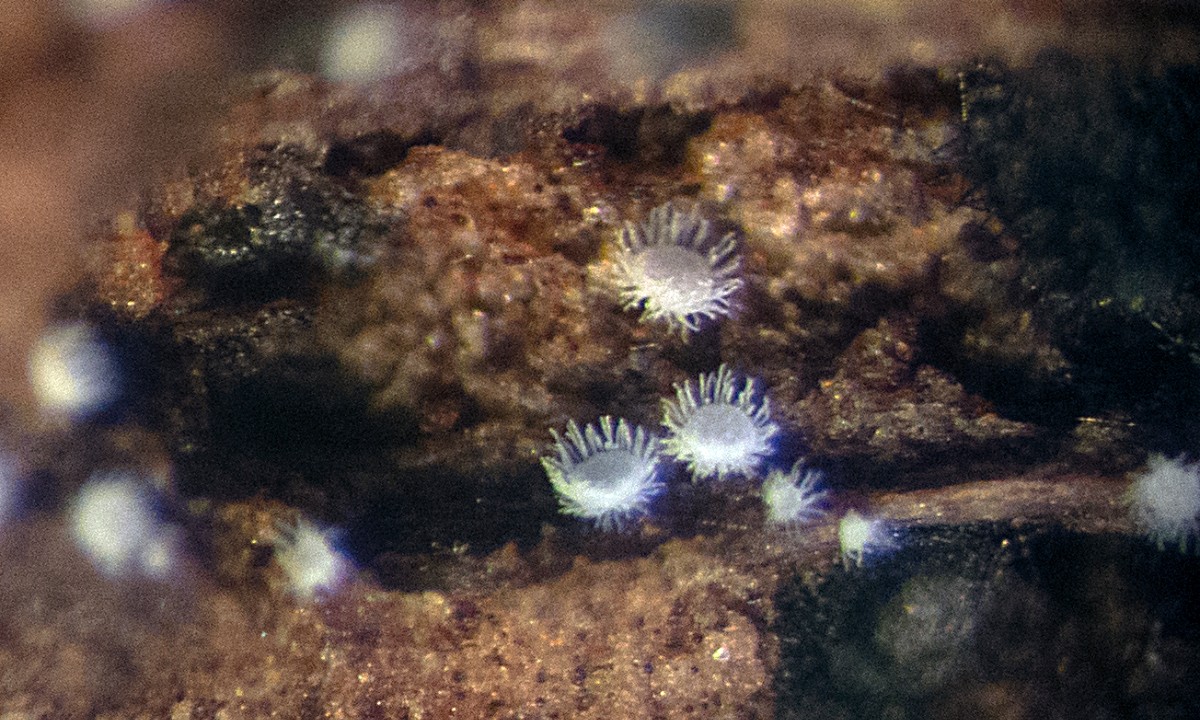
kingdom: Fungi
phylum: Basidiomycota
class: Agaricomycetes
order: Agaricales
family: Tricholomataceae
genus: Pseudolasiobolus
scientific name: Pseudolasiobolus minutissimus
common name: plejadeskål
